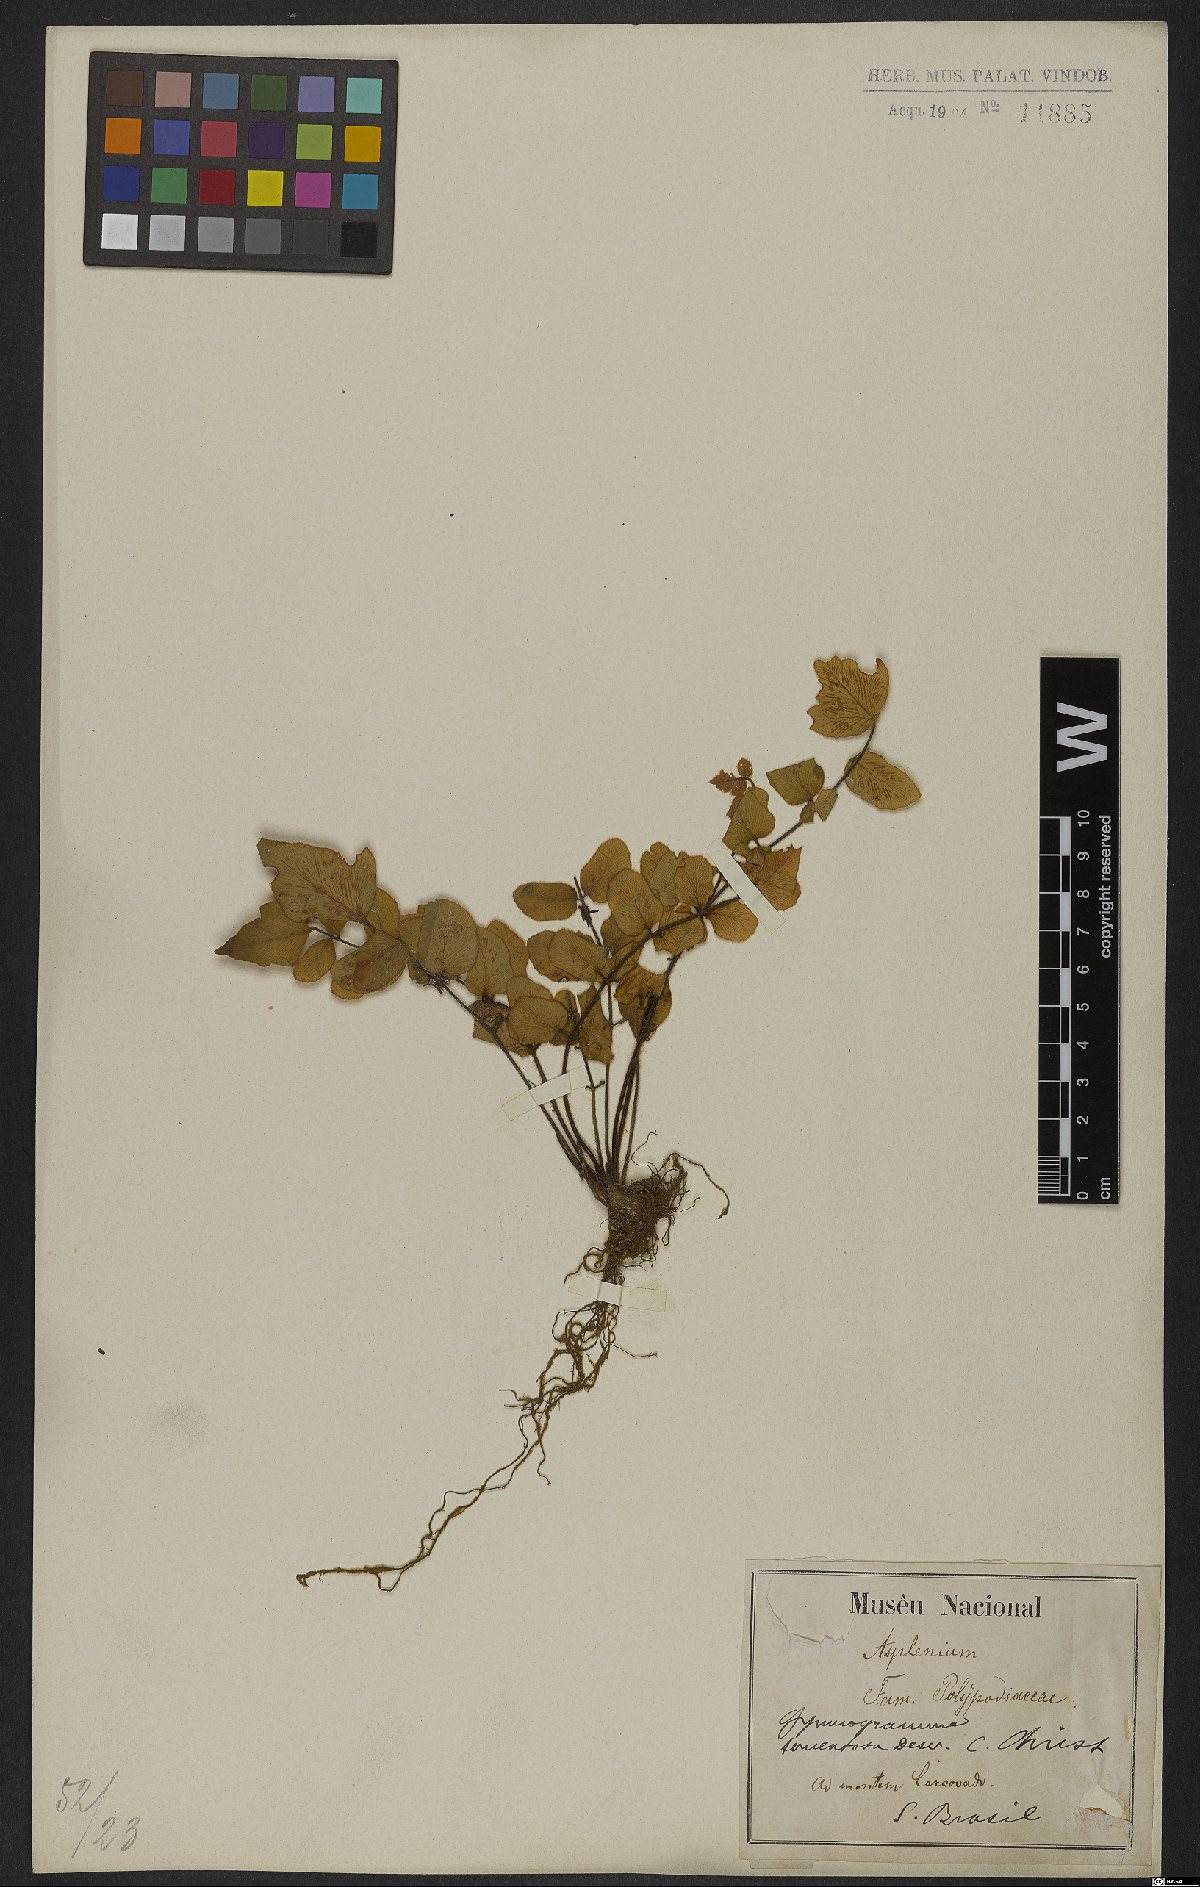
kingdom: Plantae
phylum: Tracheophyta
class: Polypodiopsida
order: Polypodiales
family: Pteridaceae
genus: Hemionitis
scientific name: Hemionitis tomentosa
